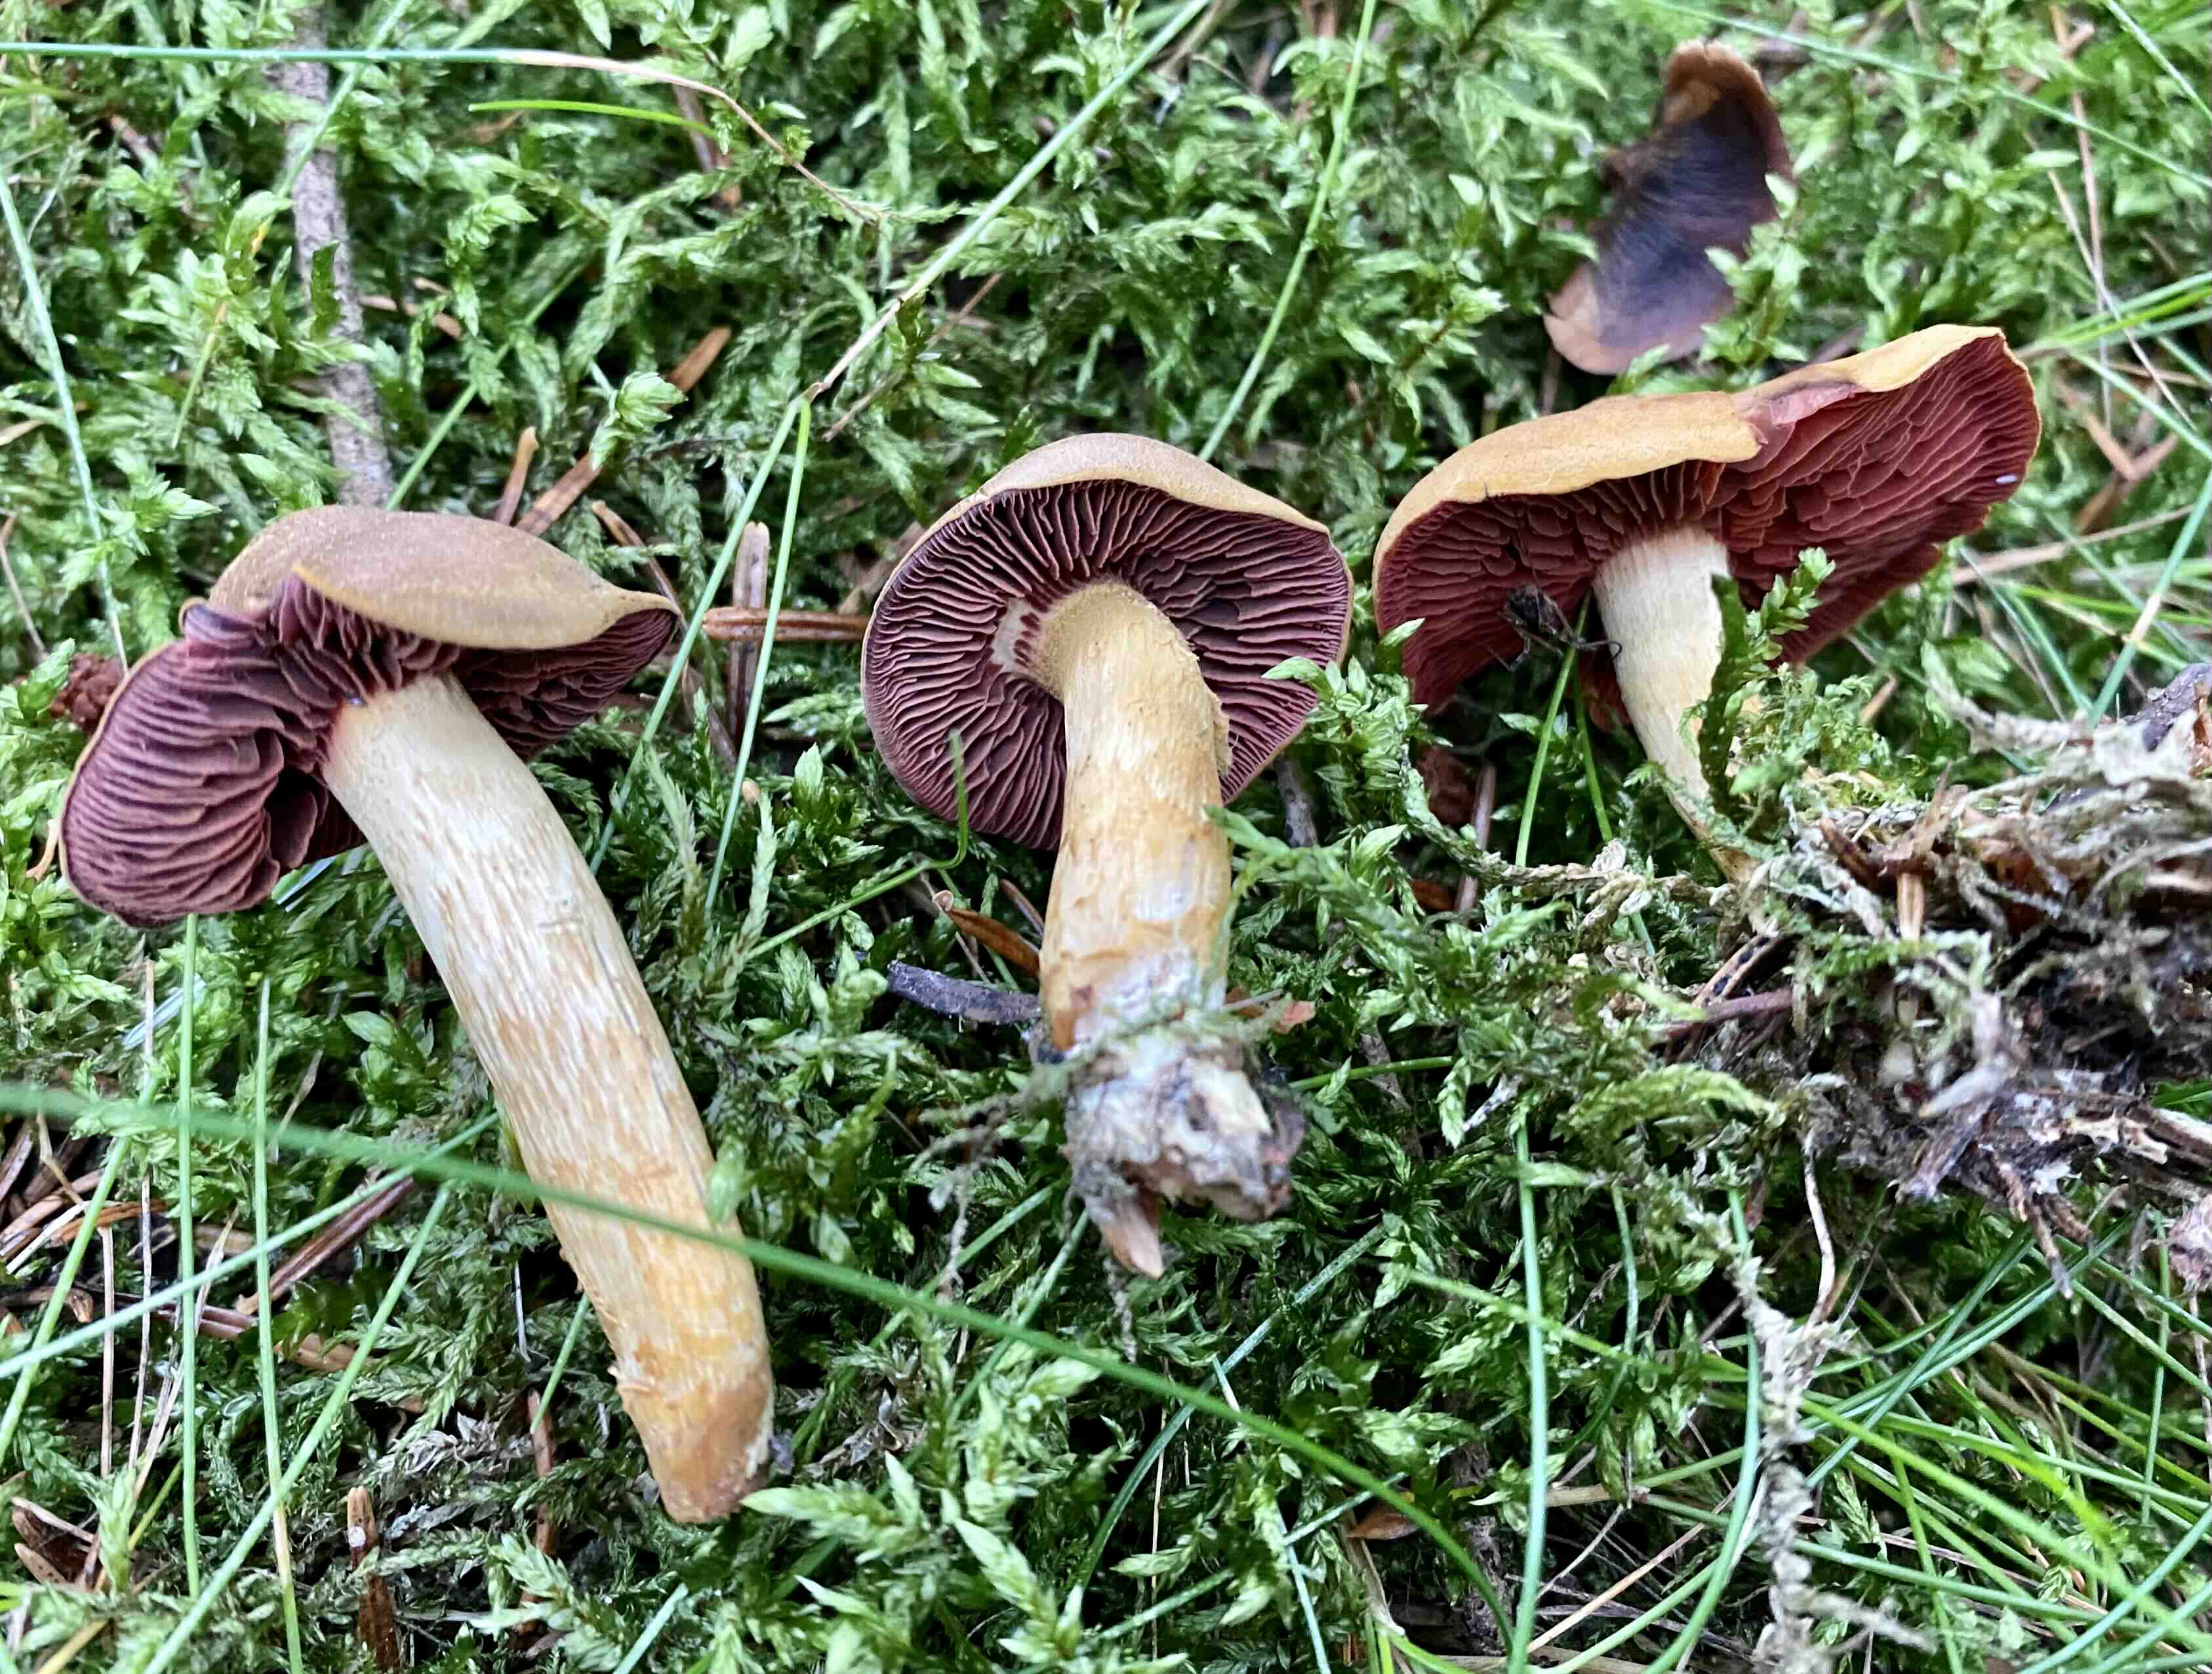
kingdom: Fungi
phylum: Basidiomycota
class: Agaricomycetes
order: Agaricales
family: Cortinariaceae
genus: Cortinarius
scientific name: Cortinarius
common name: cinnoberbladet slørhat
